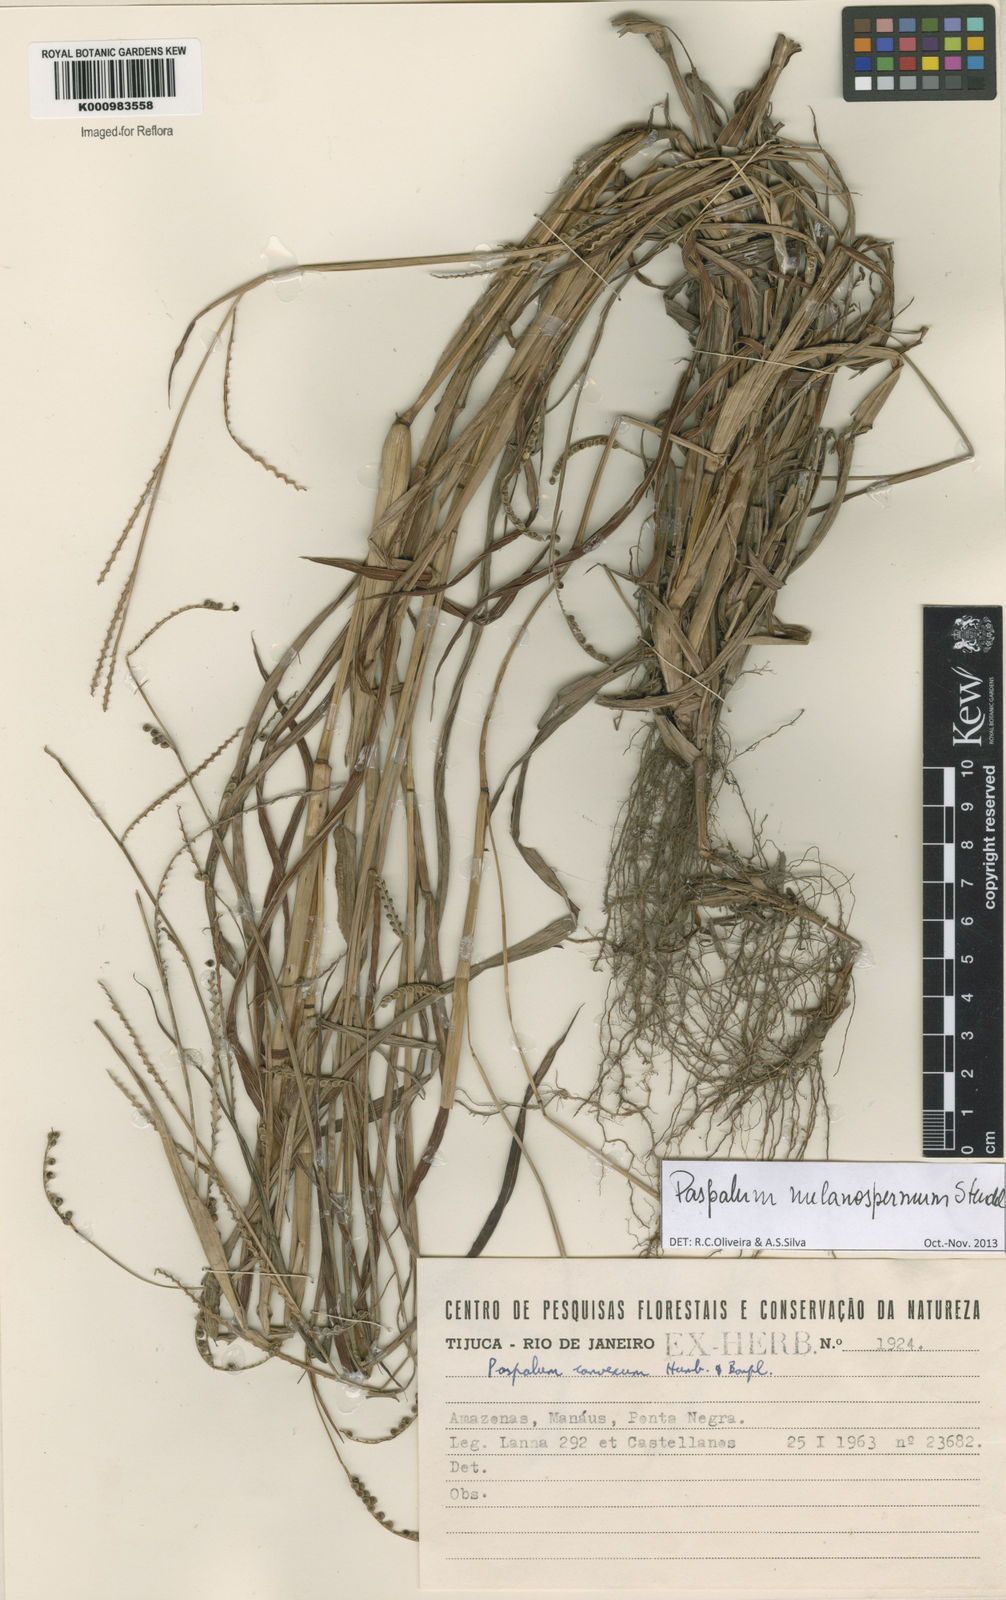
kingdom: Plantae
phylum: Tracheophyta
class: Liliopsida
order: Poales
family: Poaceae
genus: Paspalum
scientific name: Paspalum melanospermum
